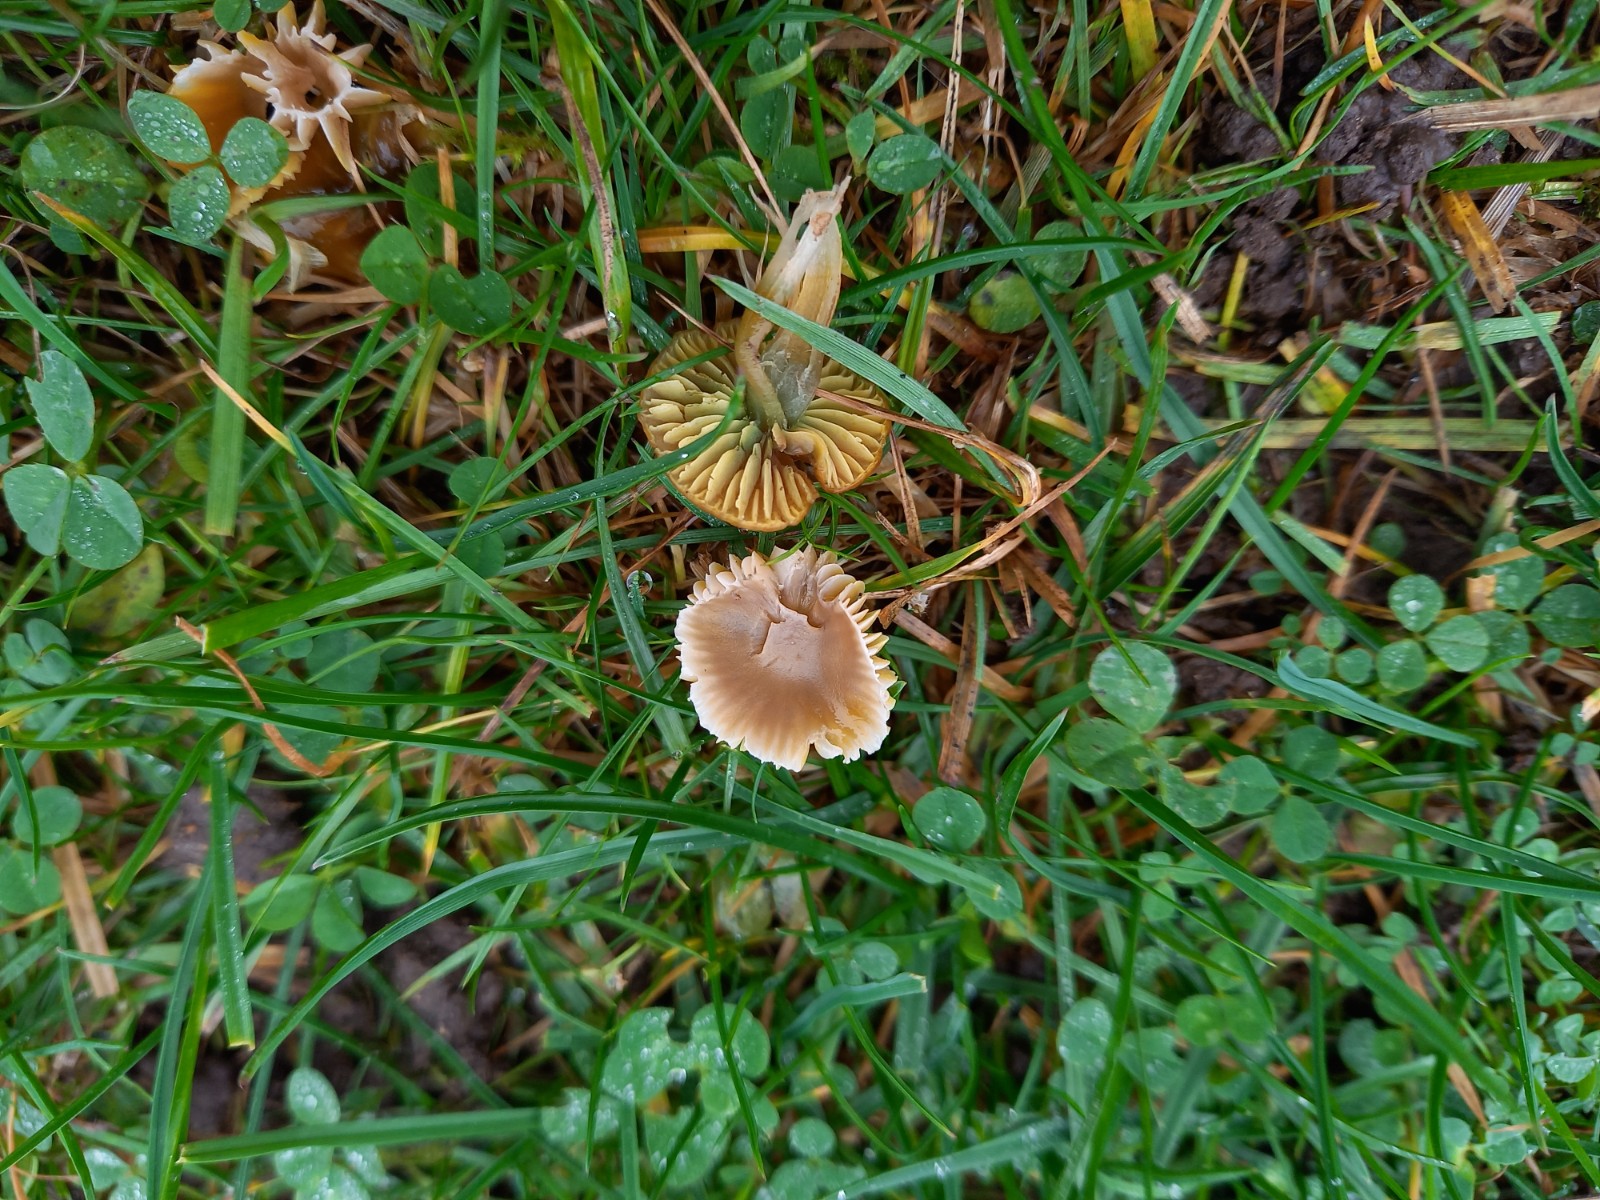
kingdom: Fungi
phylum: Basidiomycota
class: Agaricomycetes
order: Agaricales
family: Hygrophoraceae
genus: Gliophorus
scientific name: Gliophorus psittacinus
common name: papegøje-vokshat
